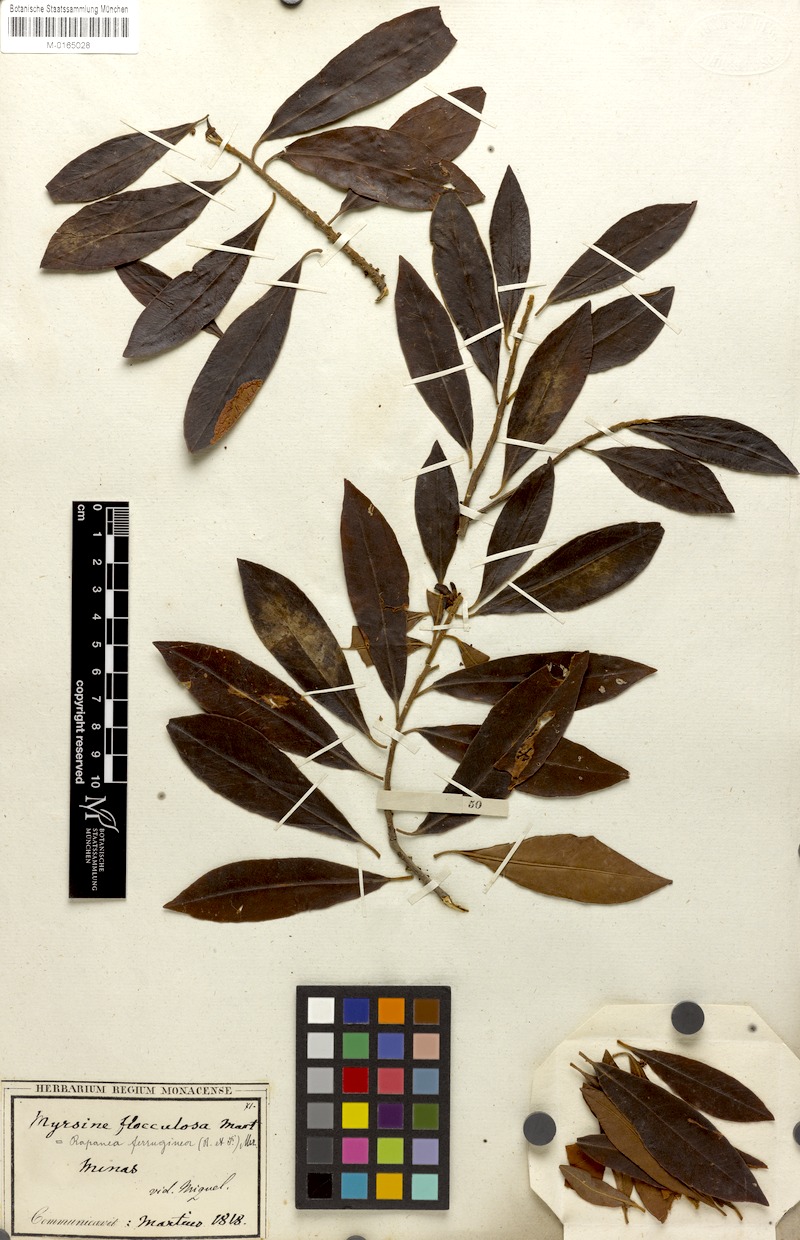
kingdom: Plantae
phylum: Tracheophyta
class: Magnoliopsida
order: Ericales
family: Primulaceae
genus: Myrsine
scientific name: Myrsine coriacea
